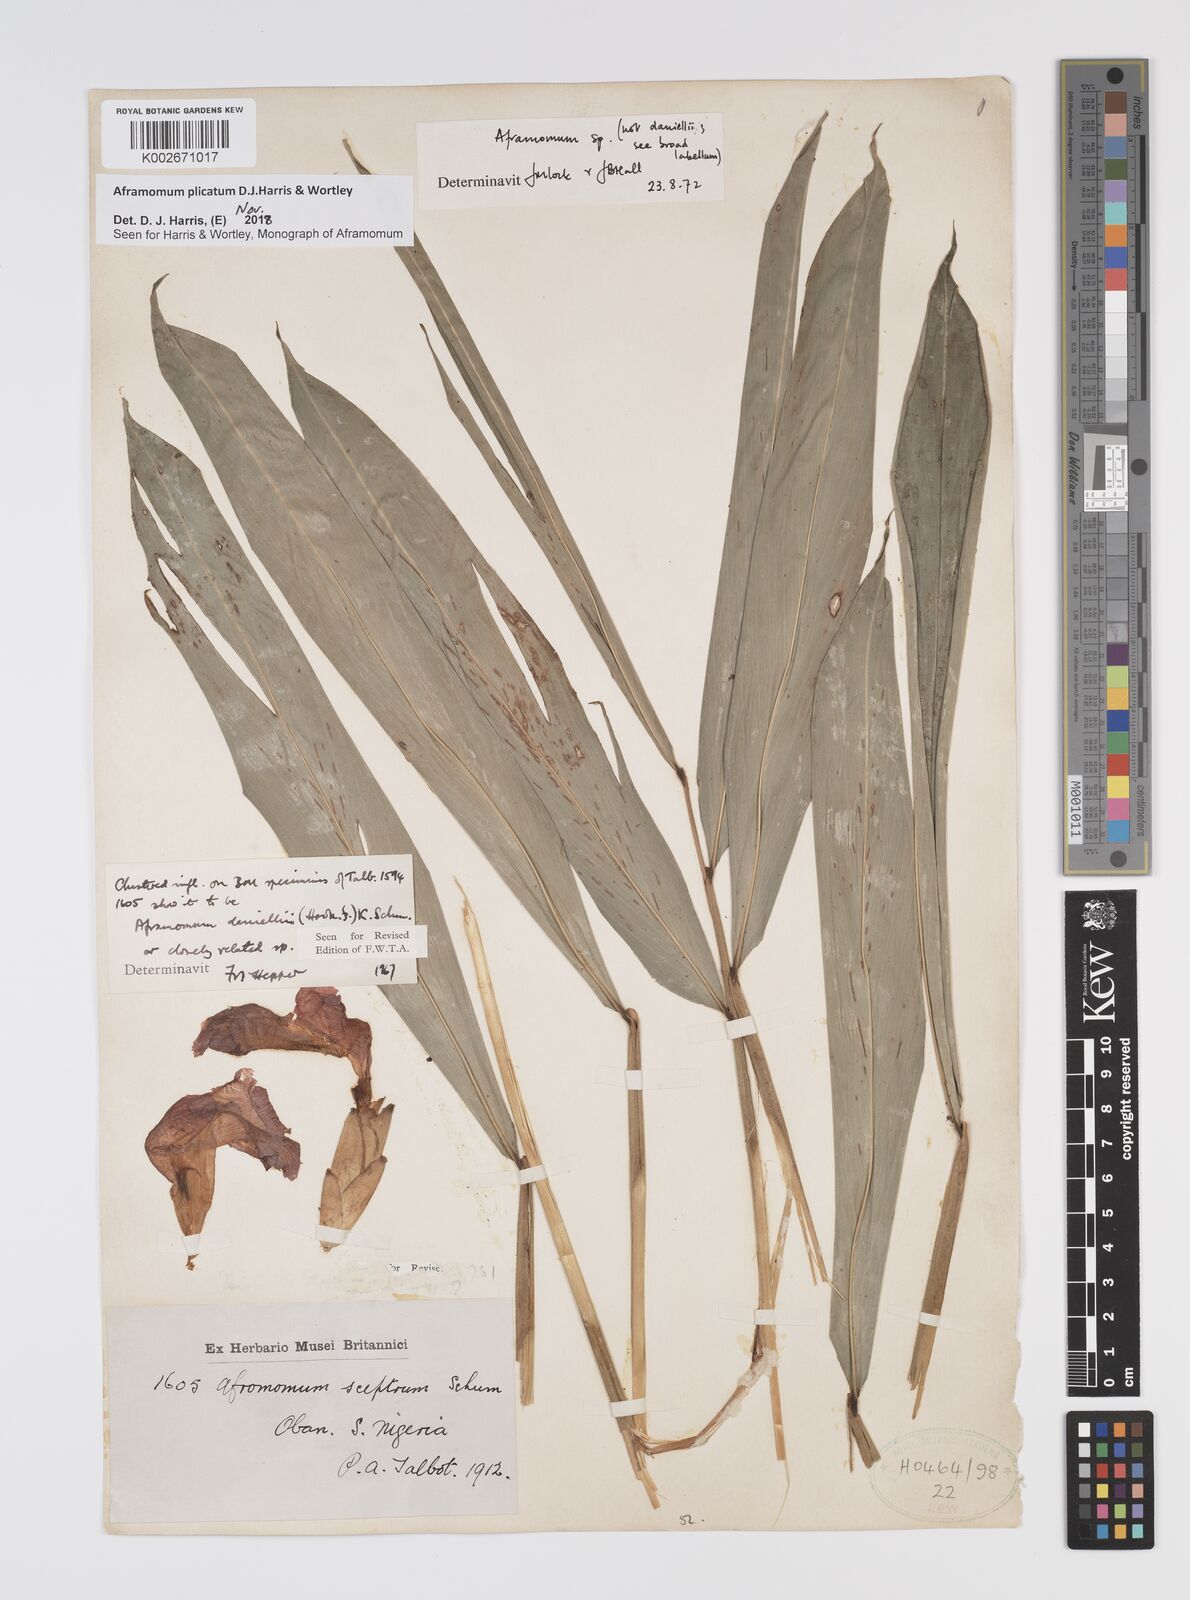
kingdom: Plantae
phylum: Tracheophyta
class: Liliopsida
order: Zingiberales
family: Zingiberaceae
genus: Aframomum
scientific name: Aframomum plicatum
